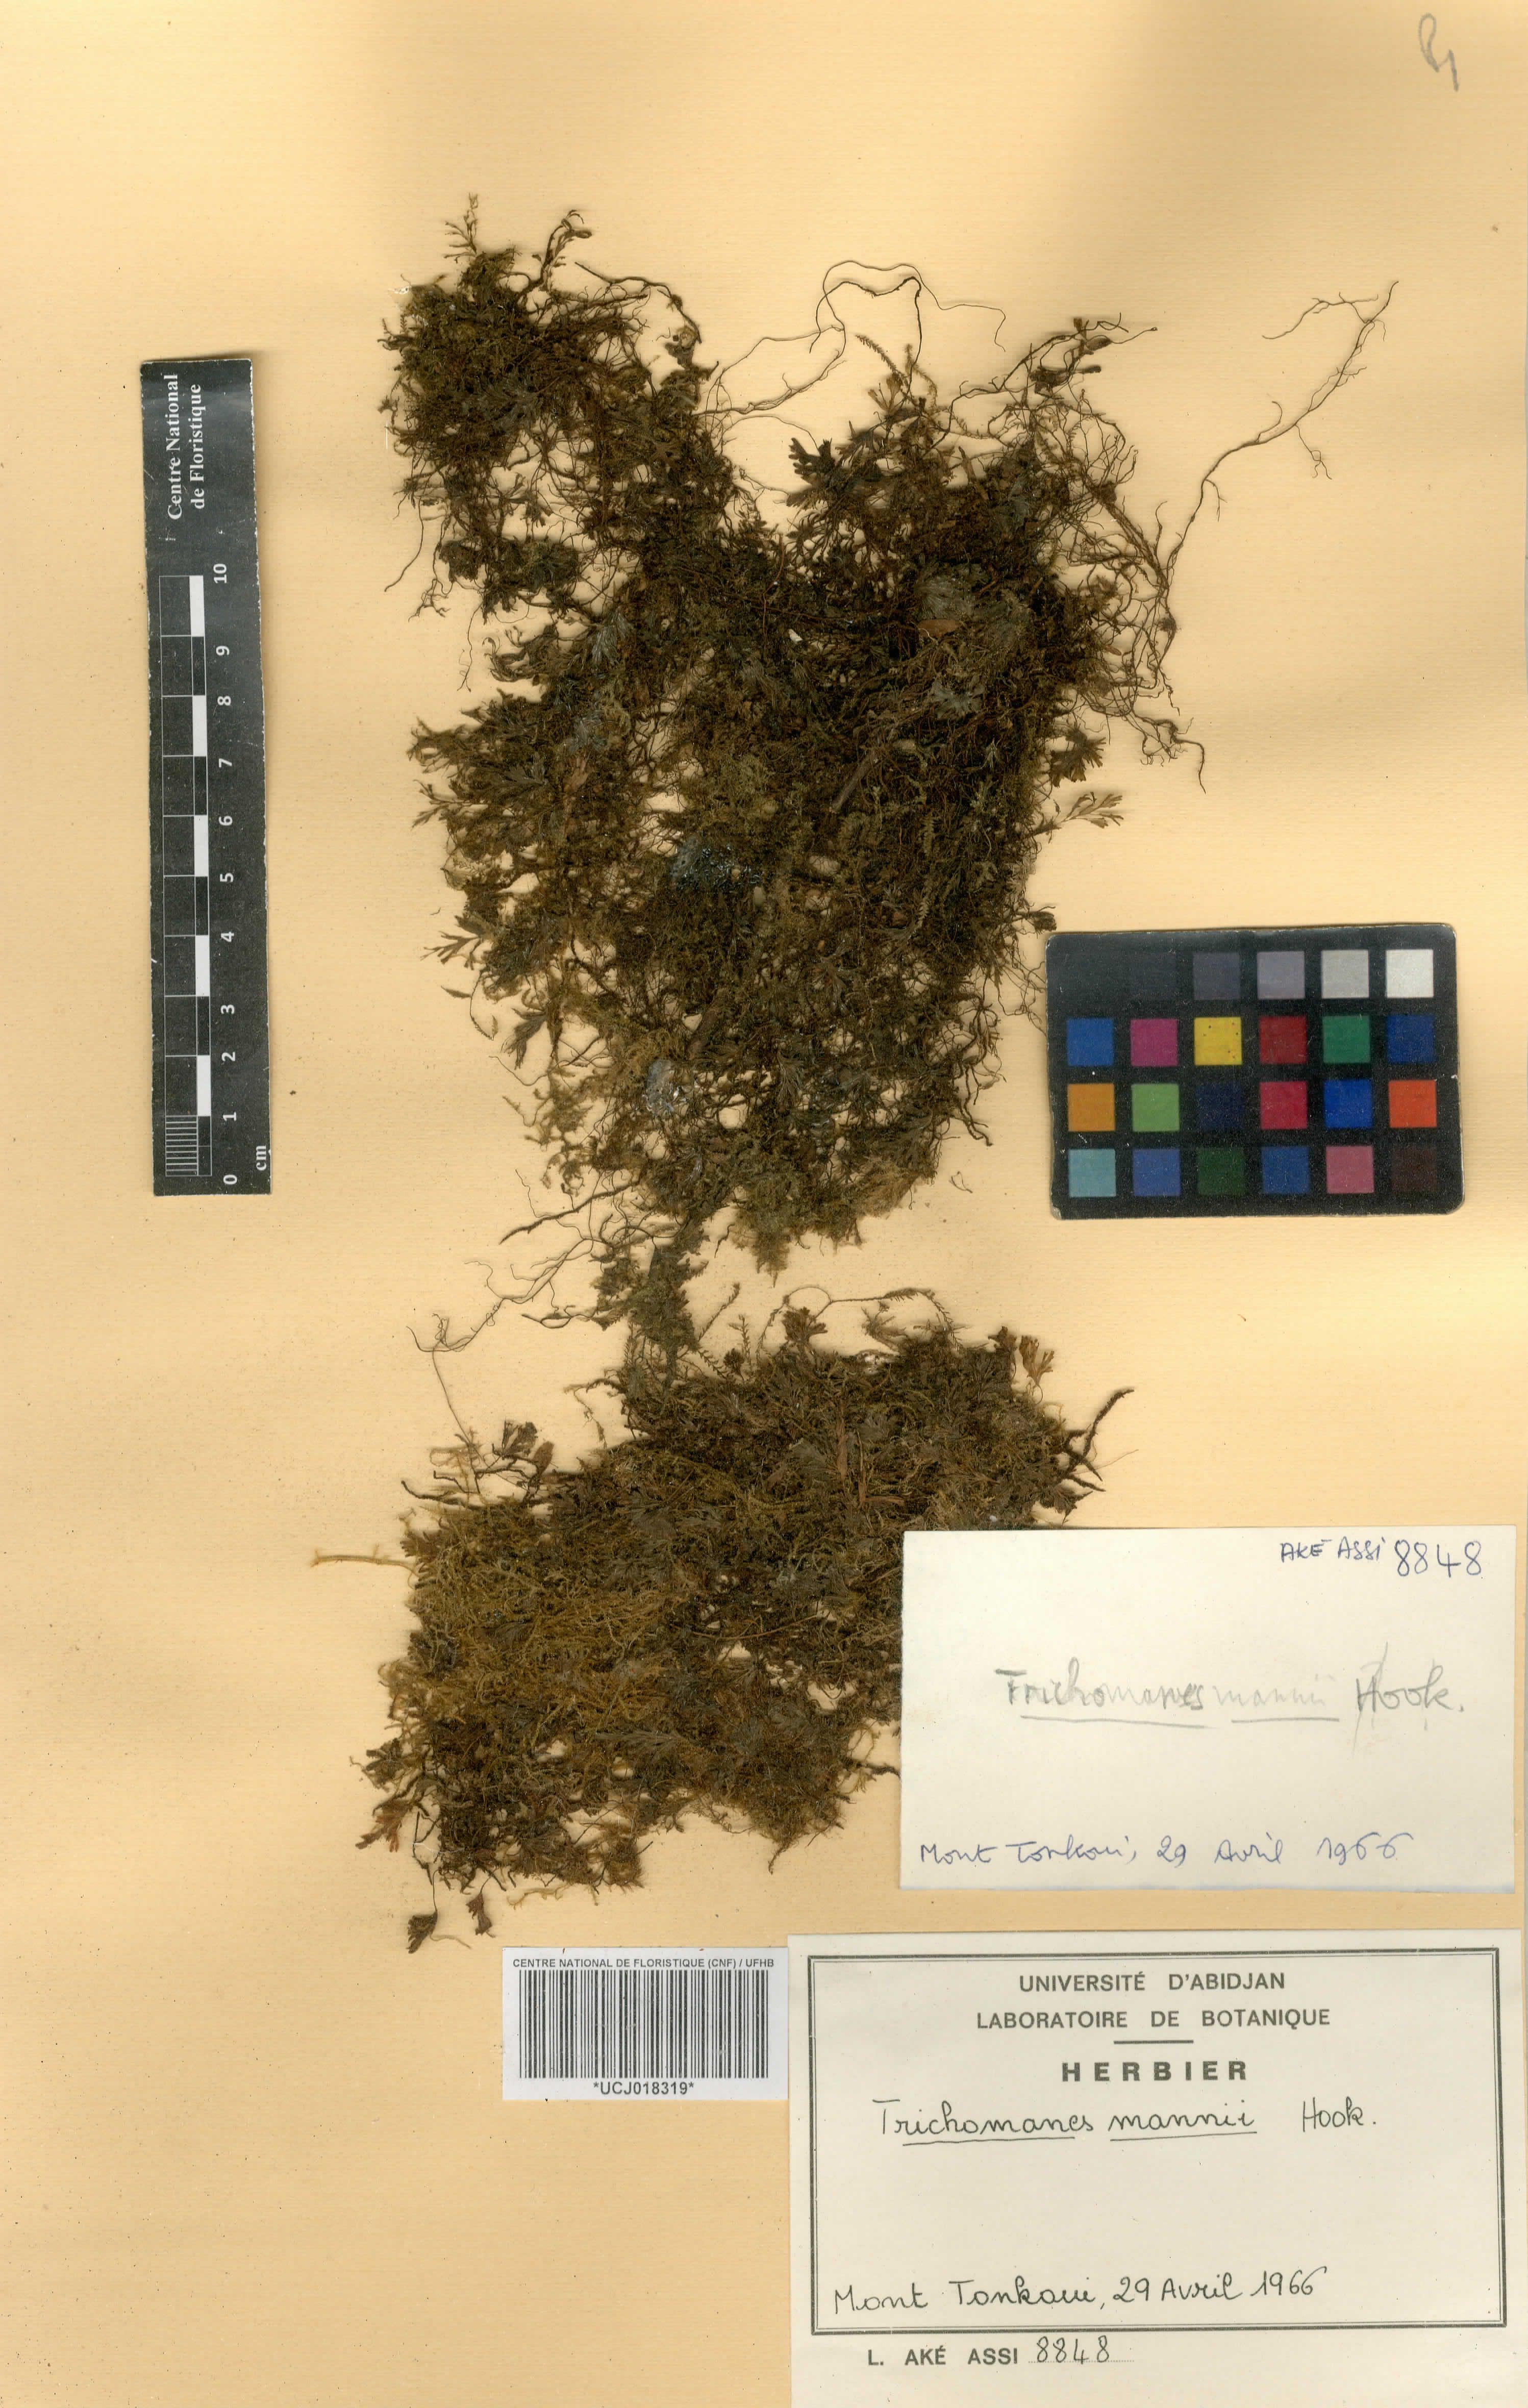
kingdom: Plantae
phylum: Tracheophyta
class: Polypodiopsida
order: Hymenophyllales
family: Hymenophyllaceae
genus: Crepidomanes
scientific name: Crepidomanes parvulum
